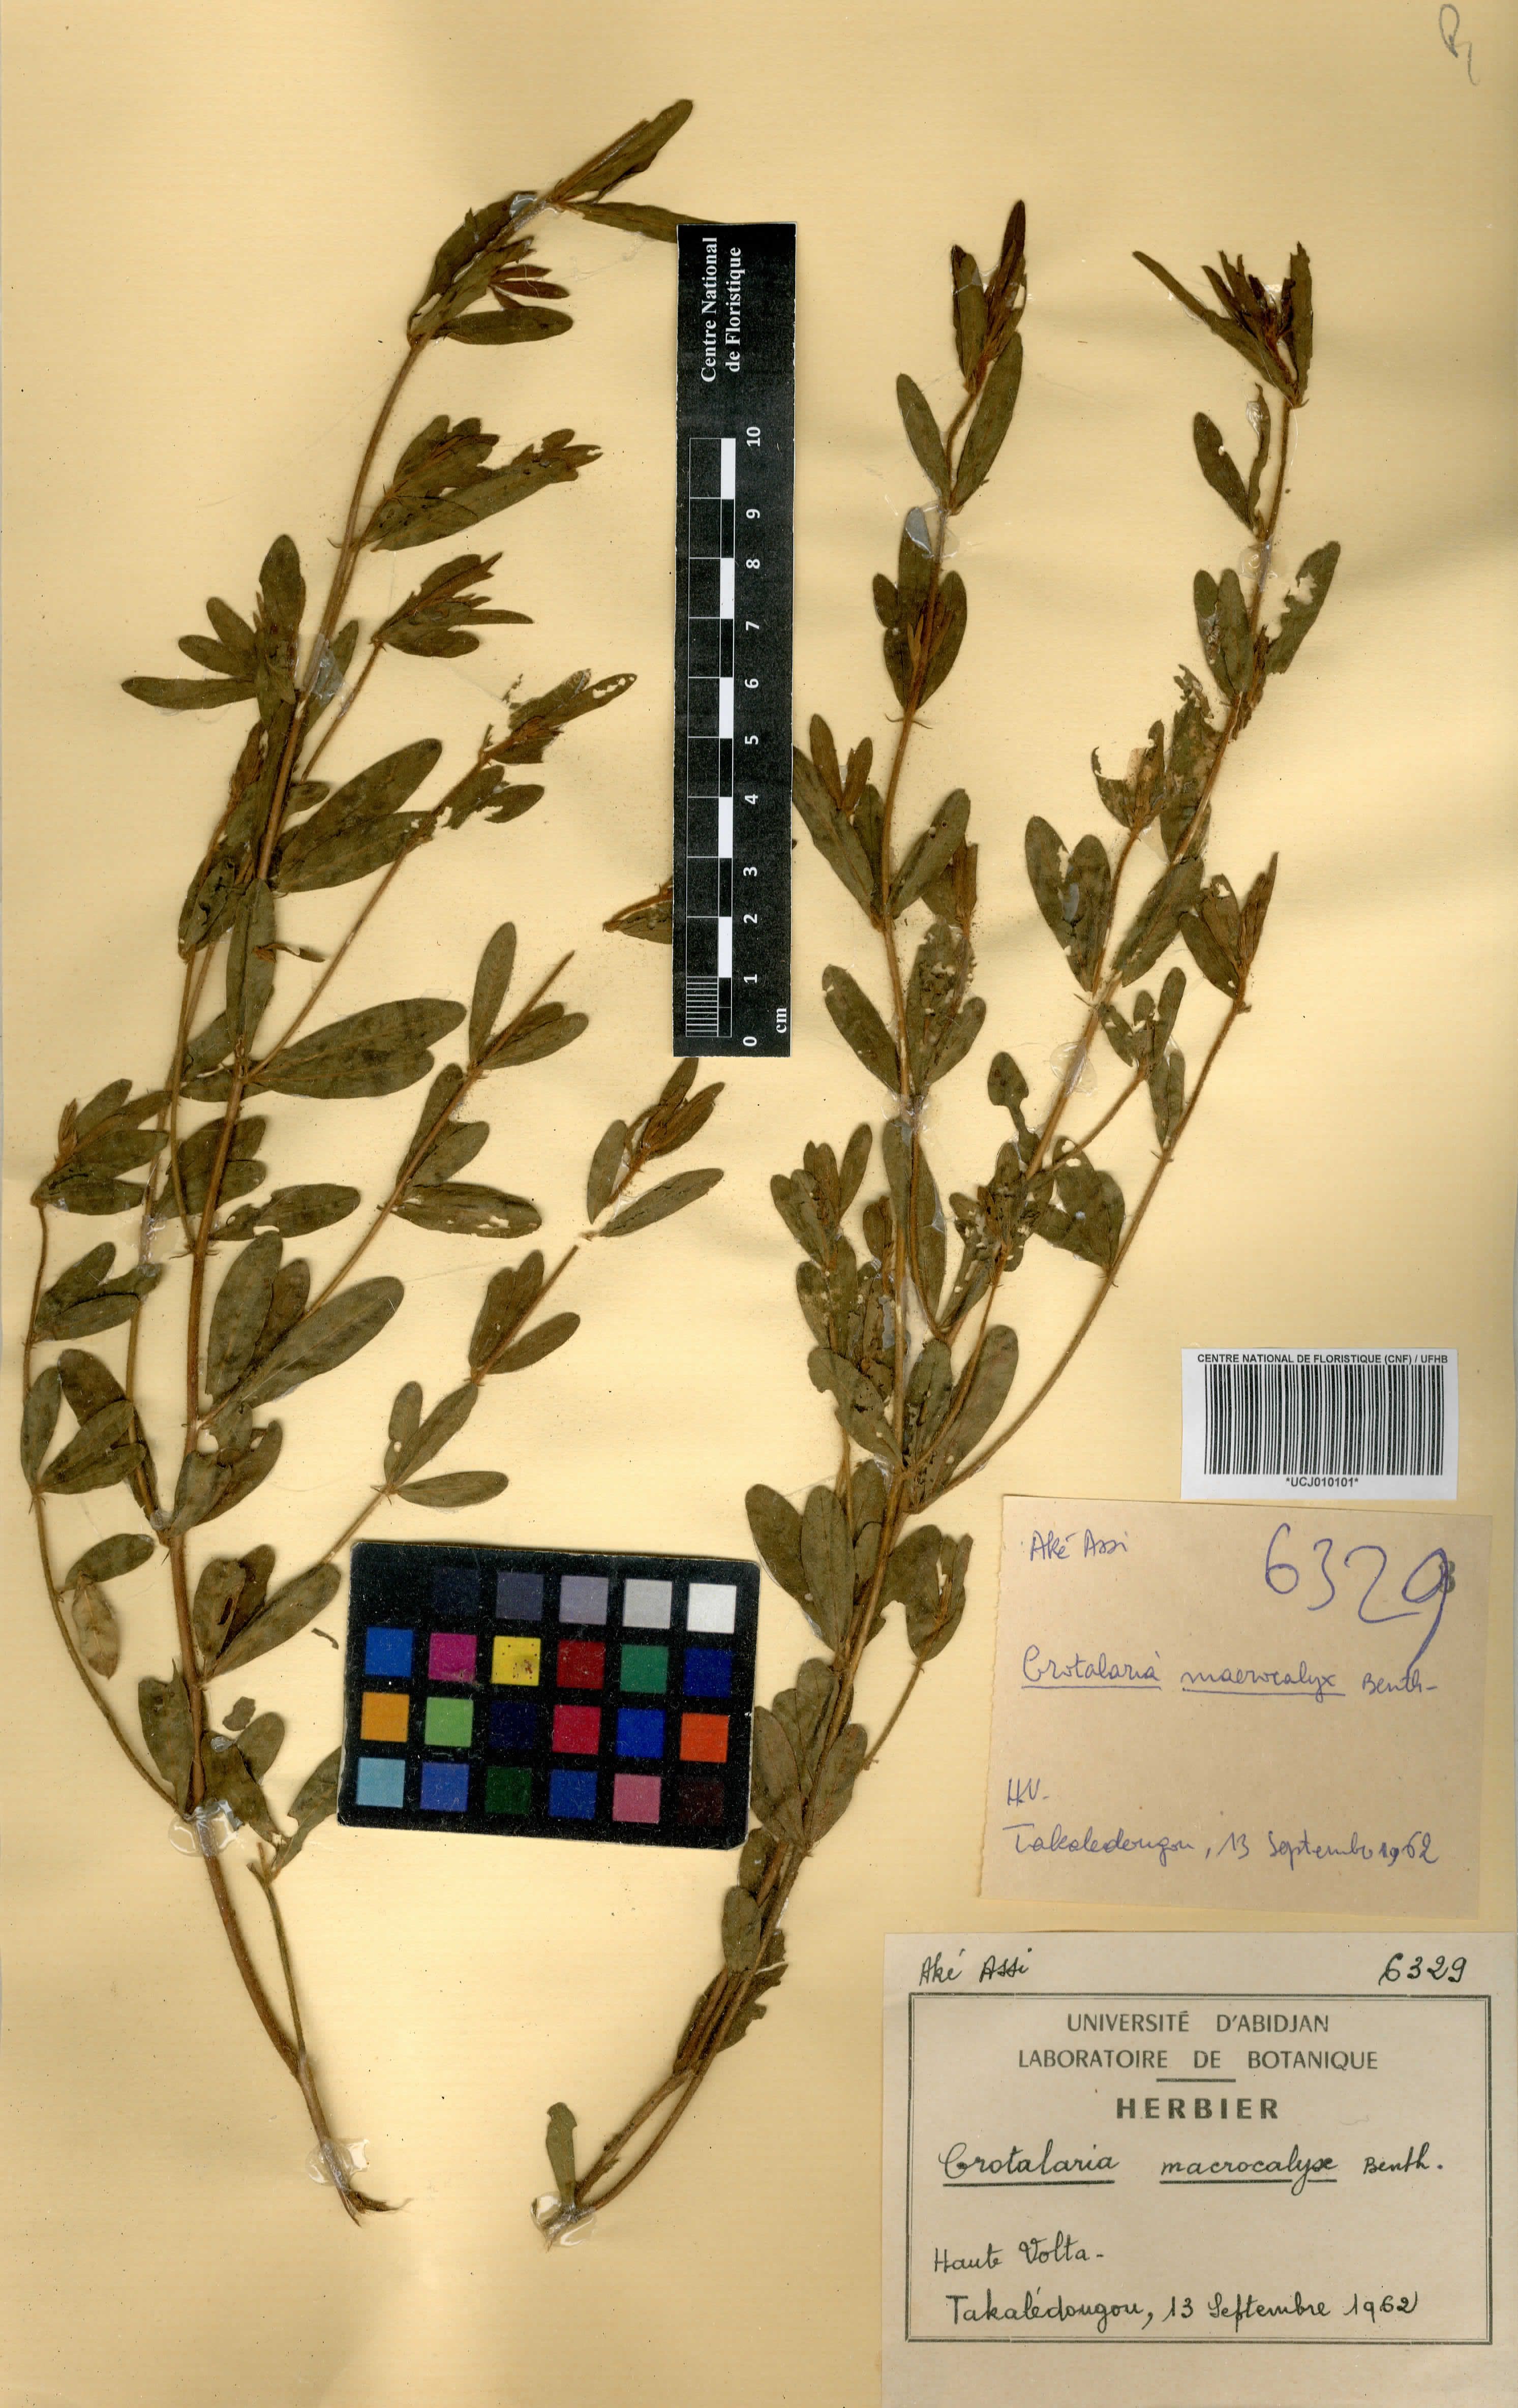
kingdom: Plantae
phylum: Tracheophyta
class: Magnoliopsida
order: Fabales
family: Fabaceae
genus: Crotalaria
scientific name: Crotalaria macrocalyx
